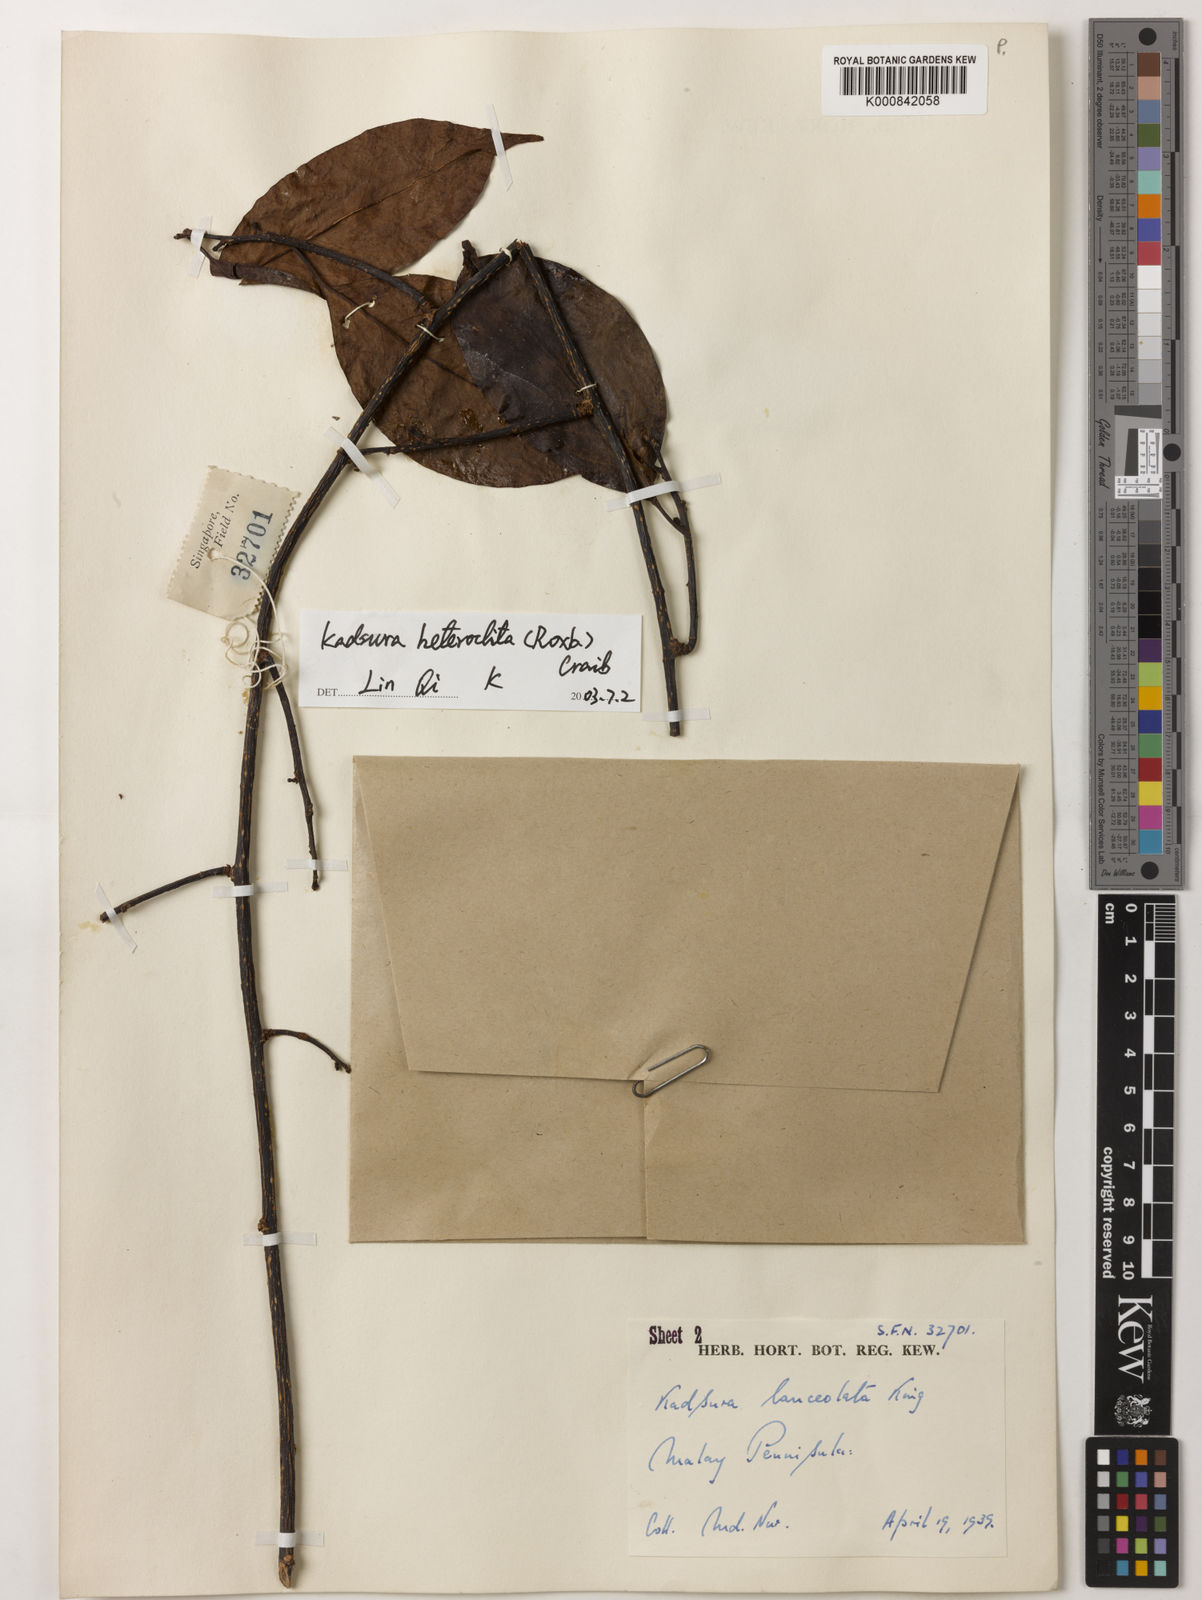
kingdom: Plantae
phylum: Tracheophyta
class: Magnoliopsida
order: Austrobaileyales
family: Schisandraceae
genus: Kadsura
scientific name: Kadsura heteroclita
